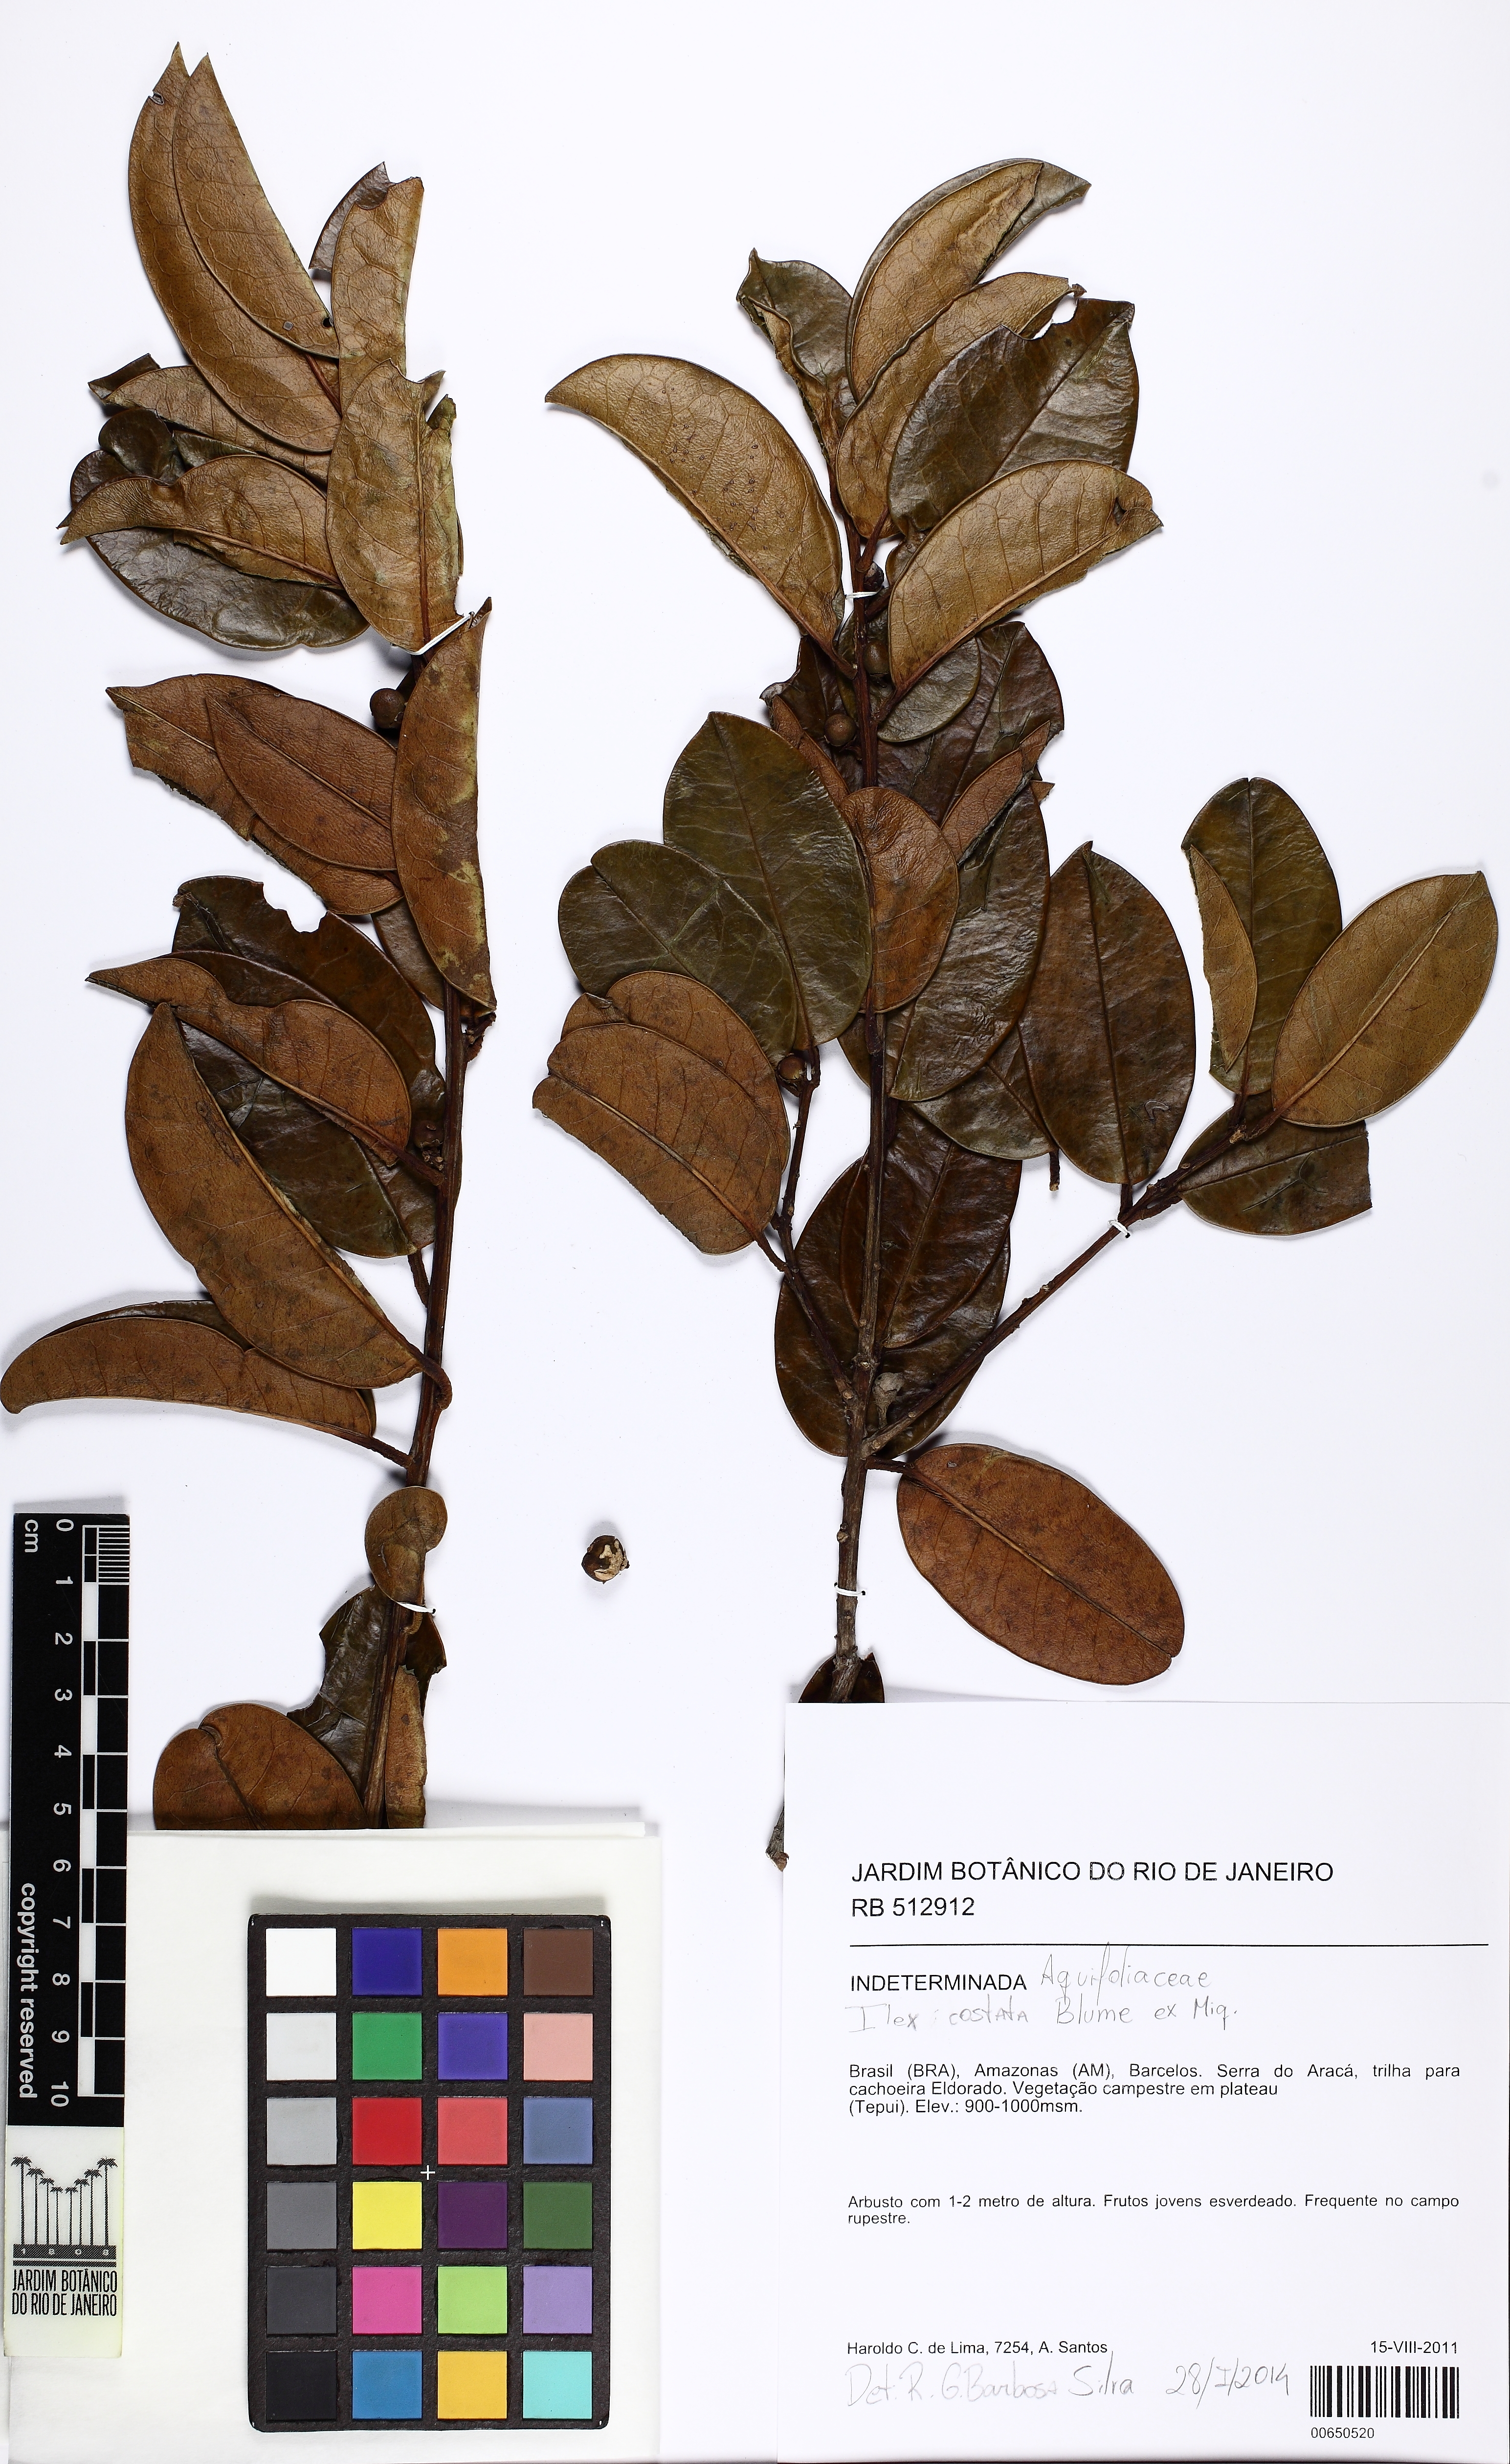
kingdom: Plantae
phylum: Tracheophyta
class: Magnoliopsida
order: Aquifoliales
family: Aquifoliaceae
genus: Ilex
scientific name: Ilex costata
